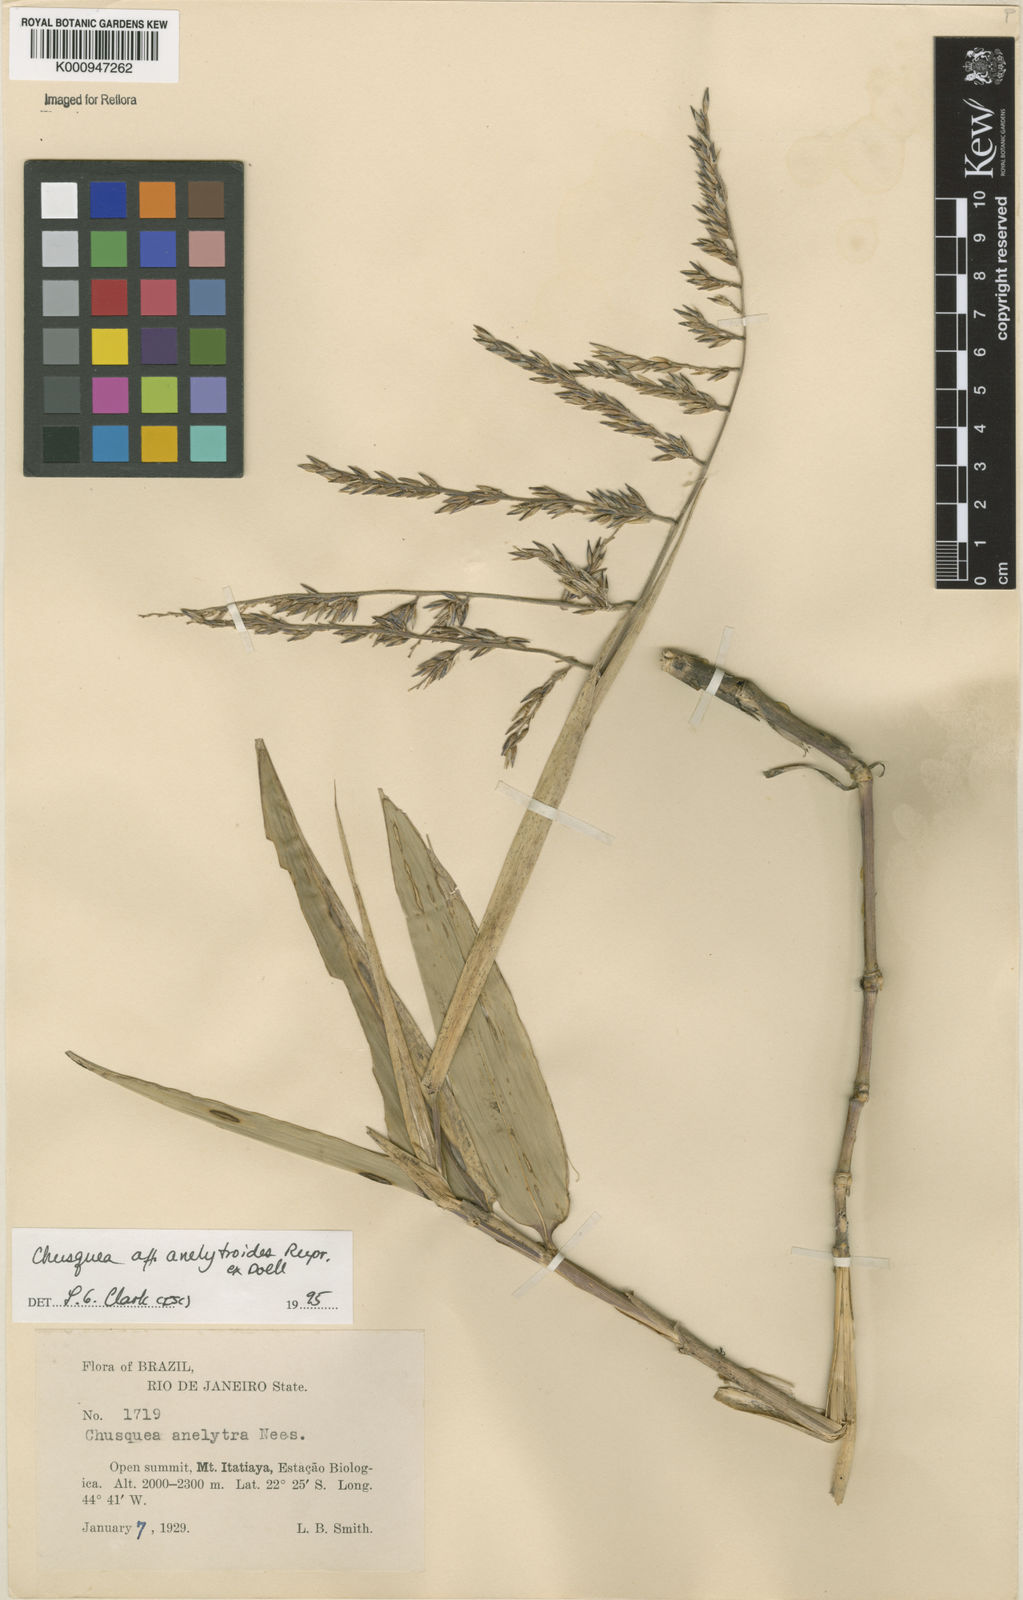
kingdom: Plantae
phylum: Tracheophyta
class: Liliopsida
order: Poales
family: Poaceae
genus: Chusquea
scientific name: Chusquea
